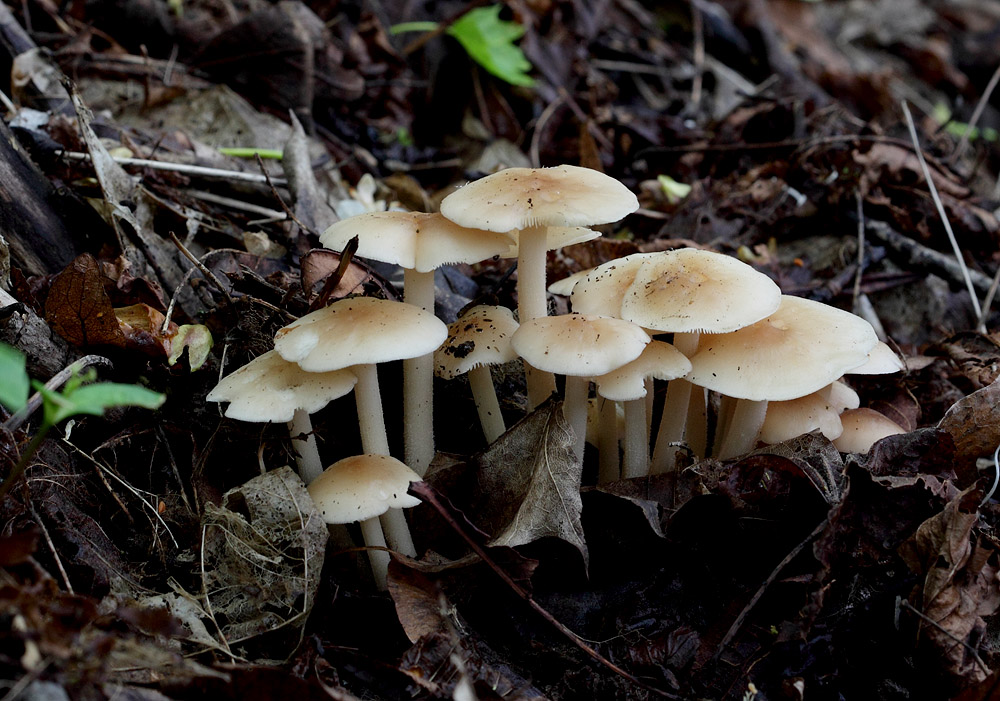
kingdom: Fungi
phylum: Basidiomycota
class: Agaricomycetes
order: Agaricales
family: Omphalotaceae
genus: Gymnopus
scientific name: Gymnopus hariolorum
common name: hvidkåls-fladhat
